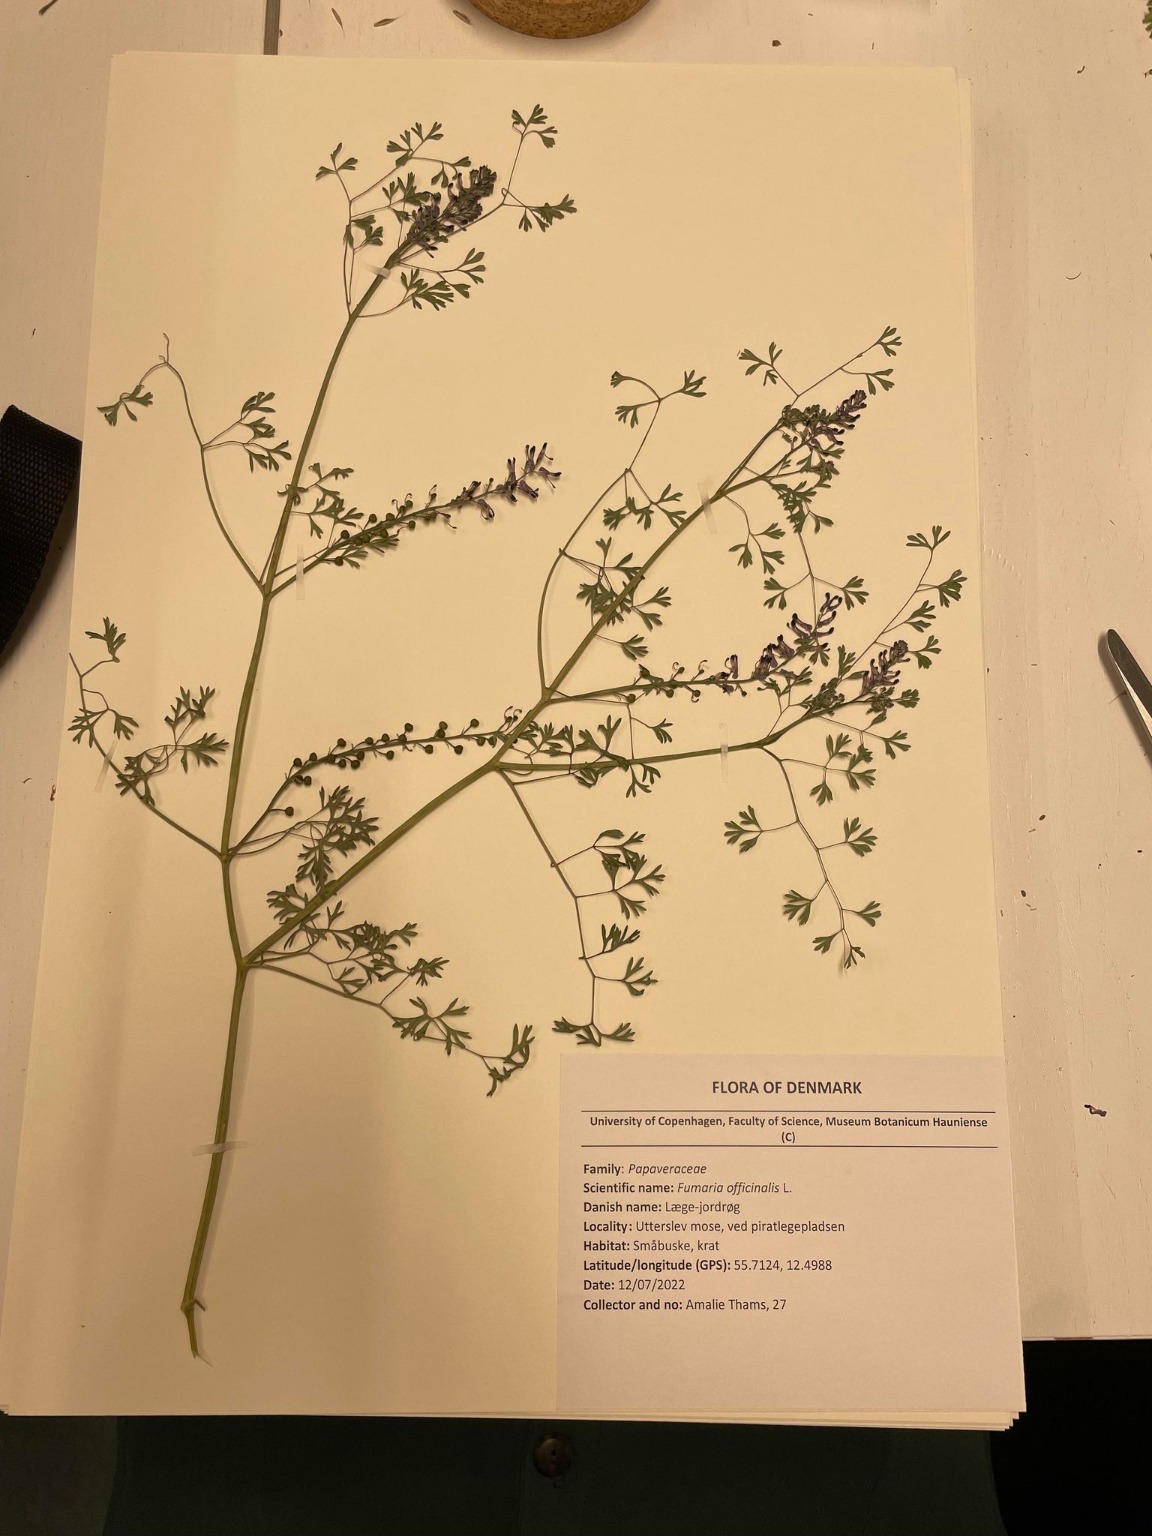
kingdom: Plantae
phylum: Tracheophyta
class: Magnoliopsida
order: Ranunculales
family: Papaveraceae
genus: Fumaria
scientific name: Fumaria officinalis
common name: Læge-jordrøg
